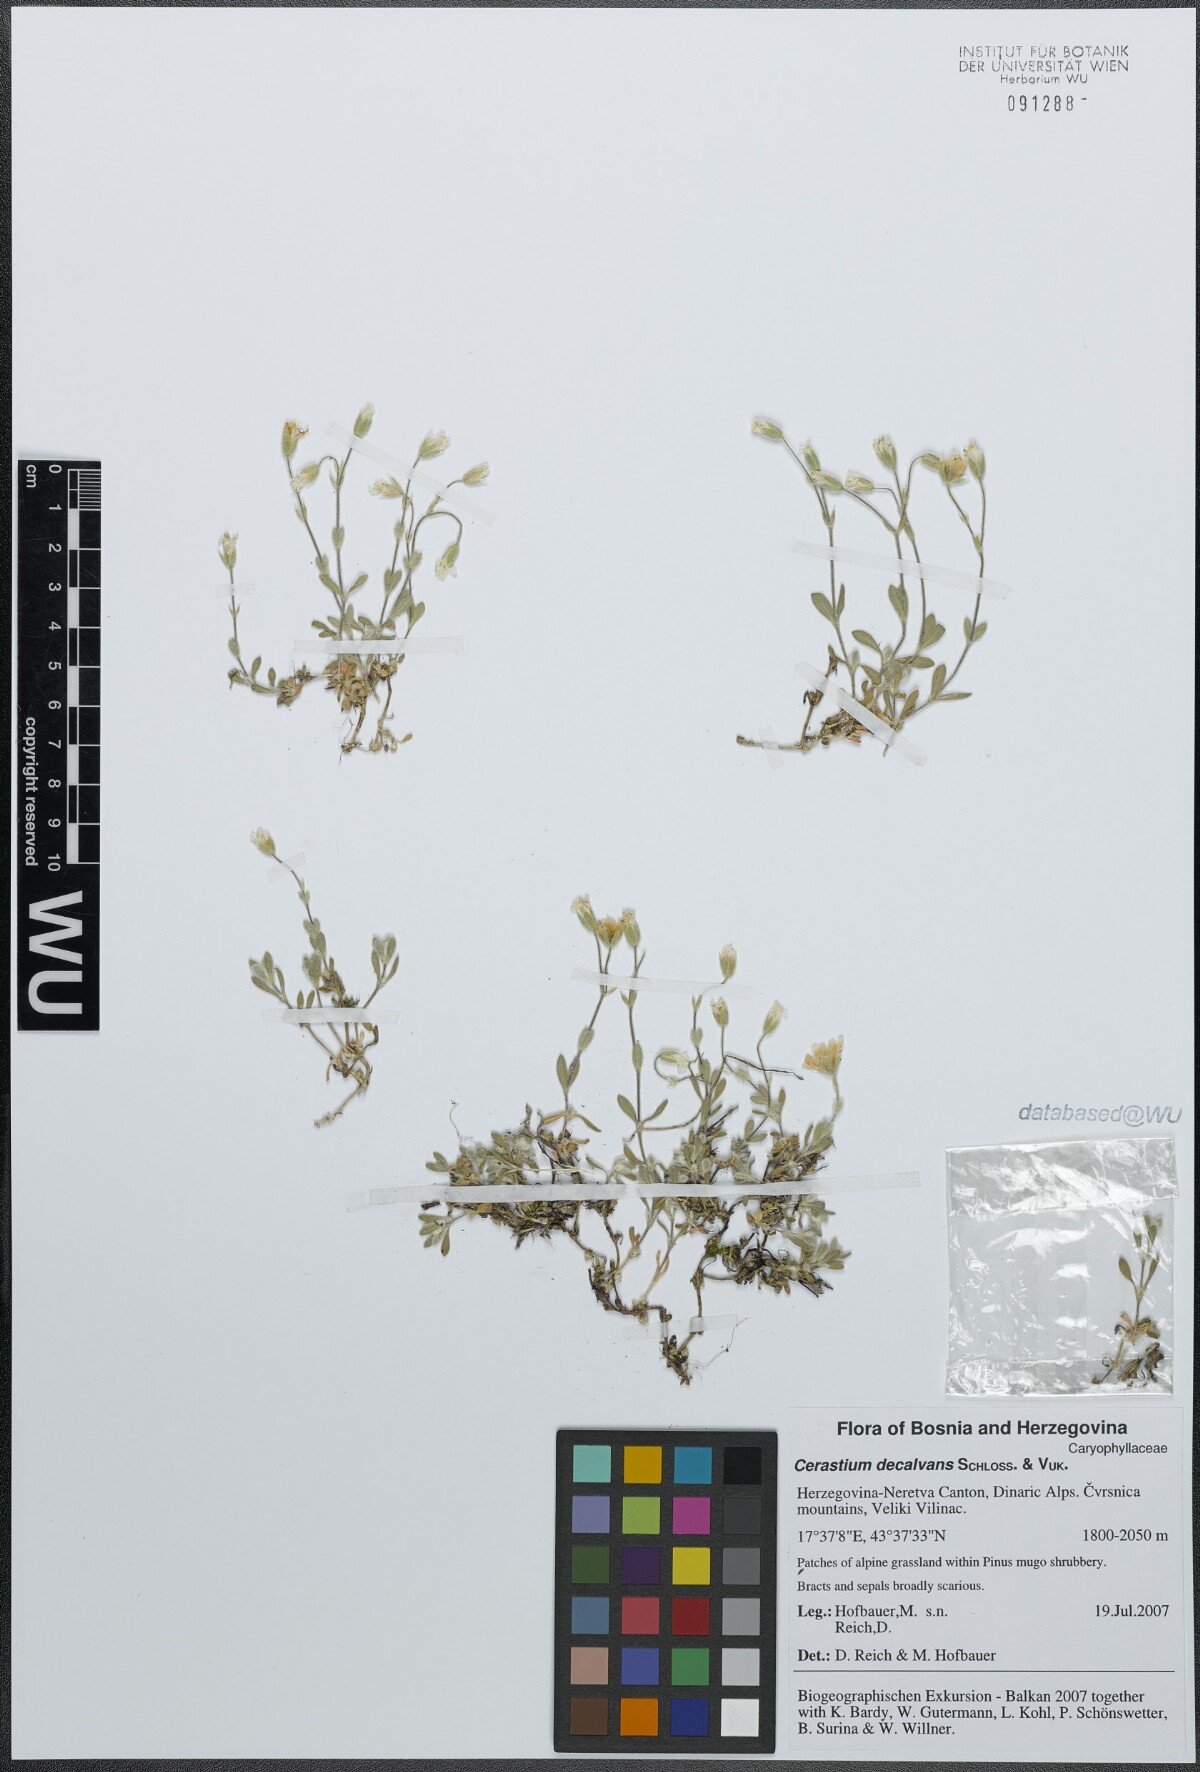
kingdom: Plantae
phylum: Tracheophyta
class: Magnoliopsida
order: Caryophyllales
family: Caryophyllaceae
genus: Cerastium
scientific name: Cerastium decalvans
